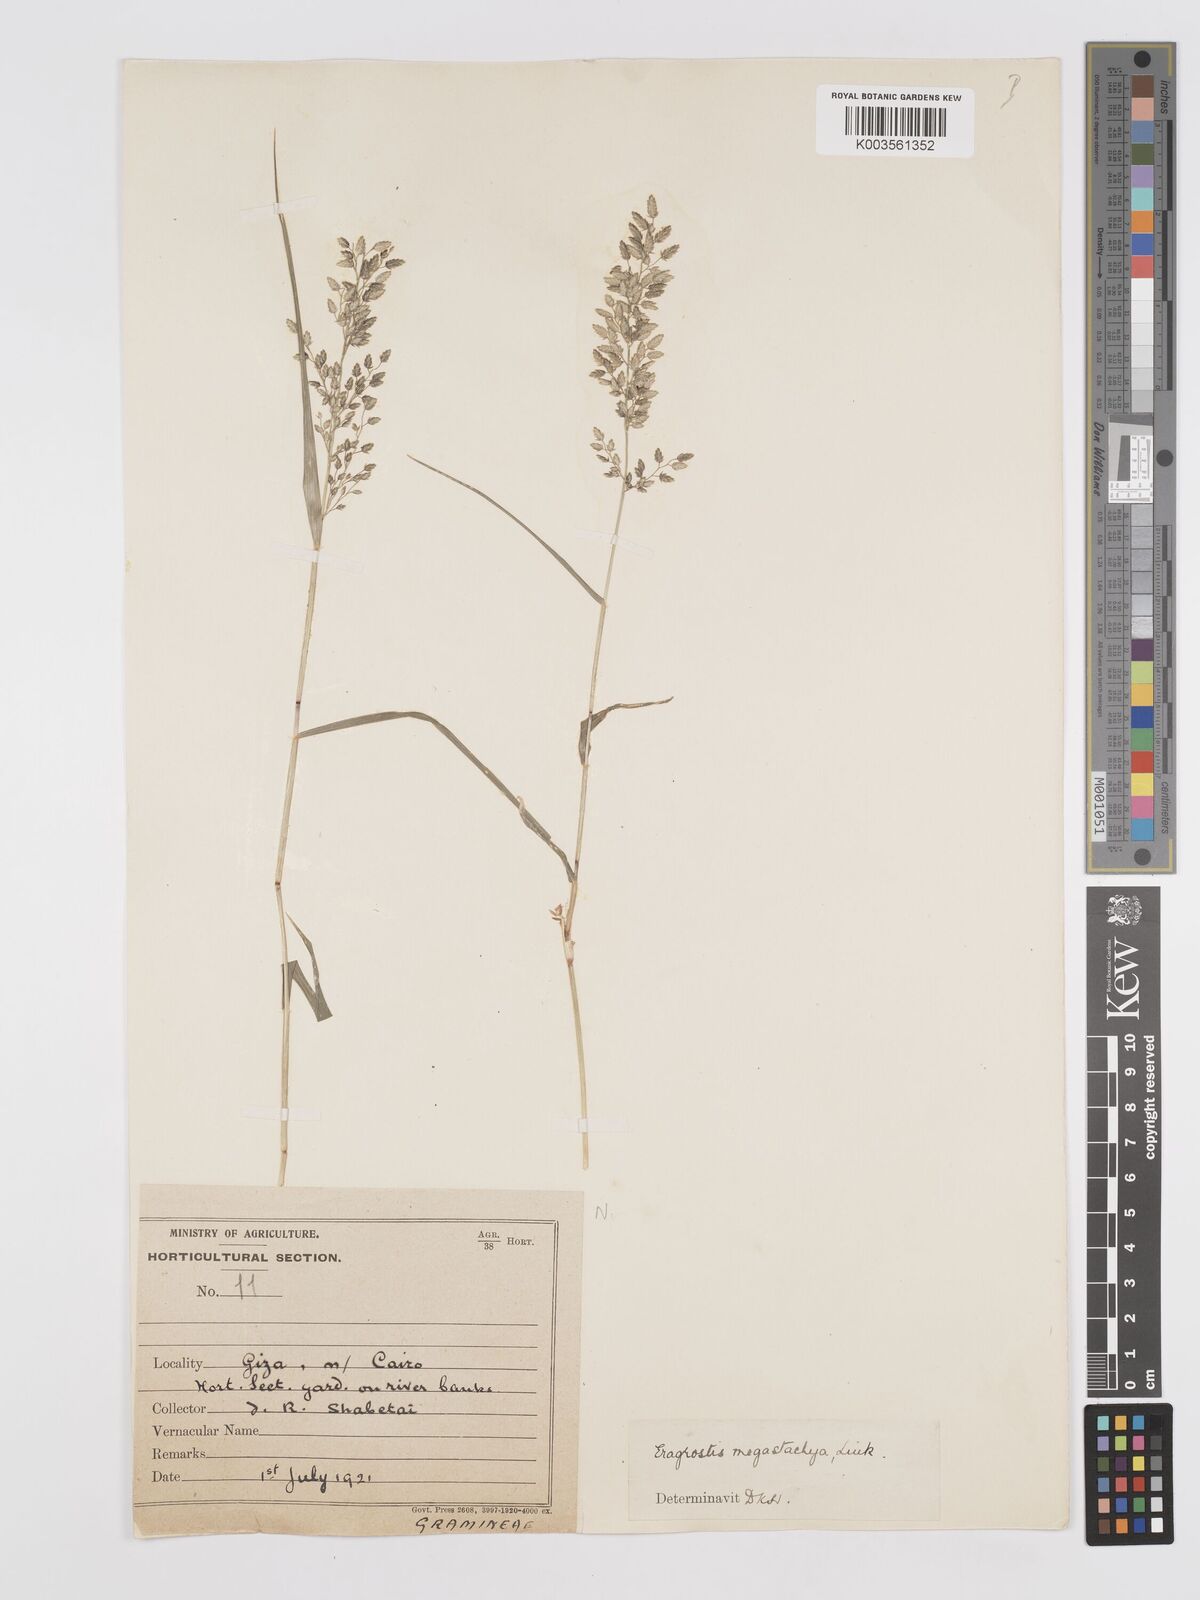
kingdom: Plantae
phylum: Tracheophyta
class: Liliopsida
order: Poales
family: Poaceae
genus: Eragrostis
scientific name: Eragrostis cilianensis
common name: Stinkgrass
